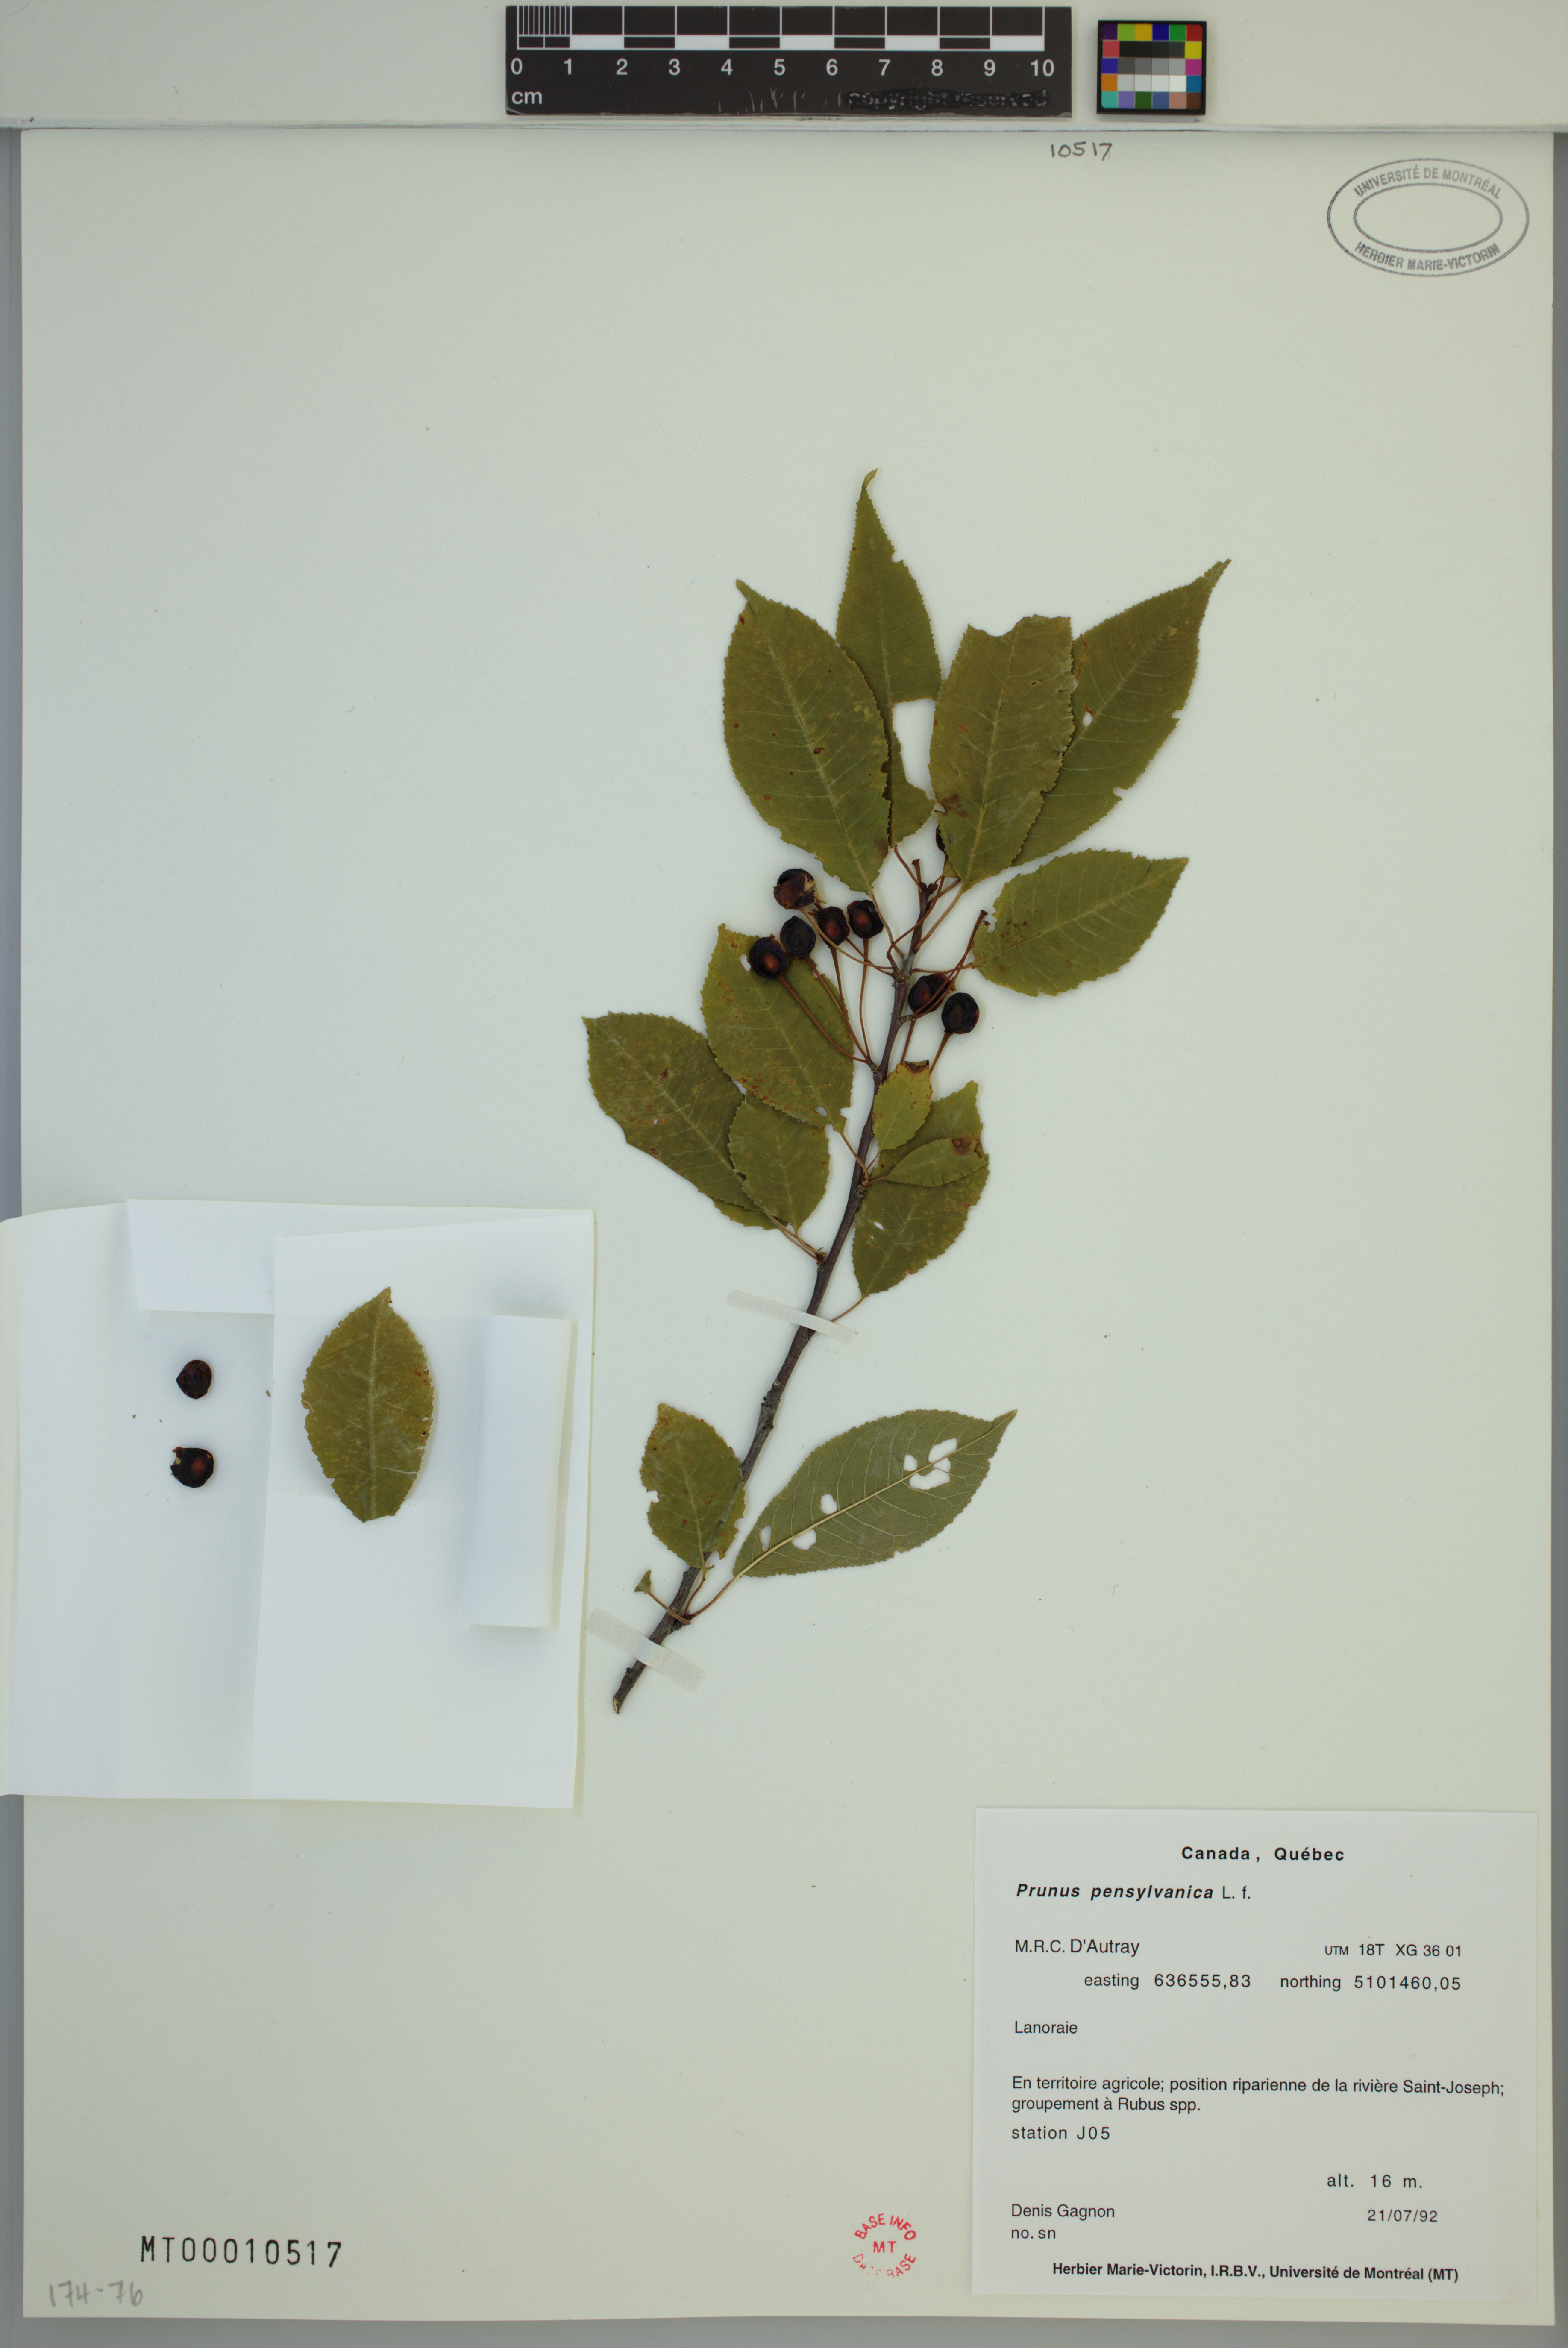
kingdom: Plantae
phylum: Tracheophyta
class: Magnoliopsida
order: Rosales
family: Rosaceae
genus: Prunus
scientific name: Prunus pensylvanica
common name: Pin cherry
